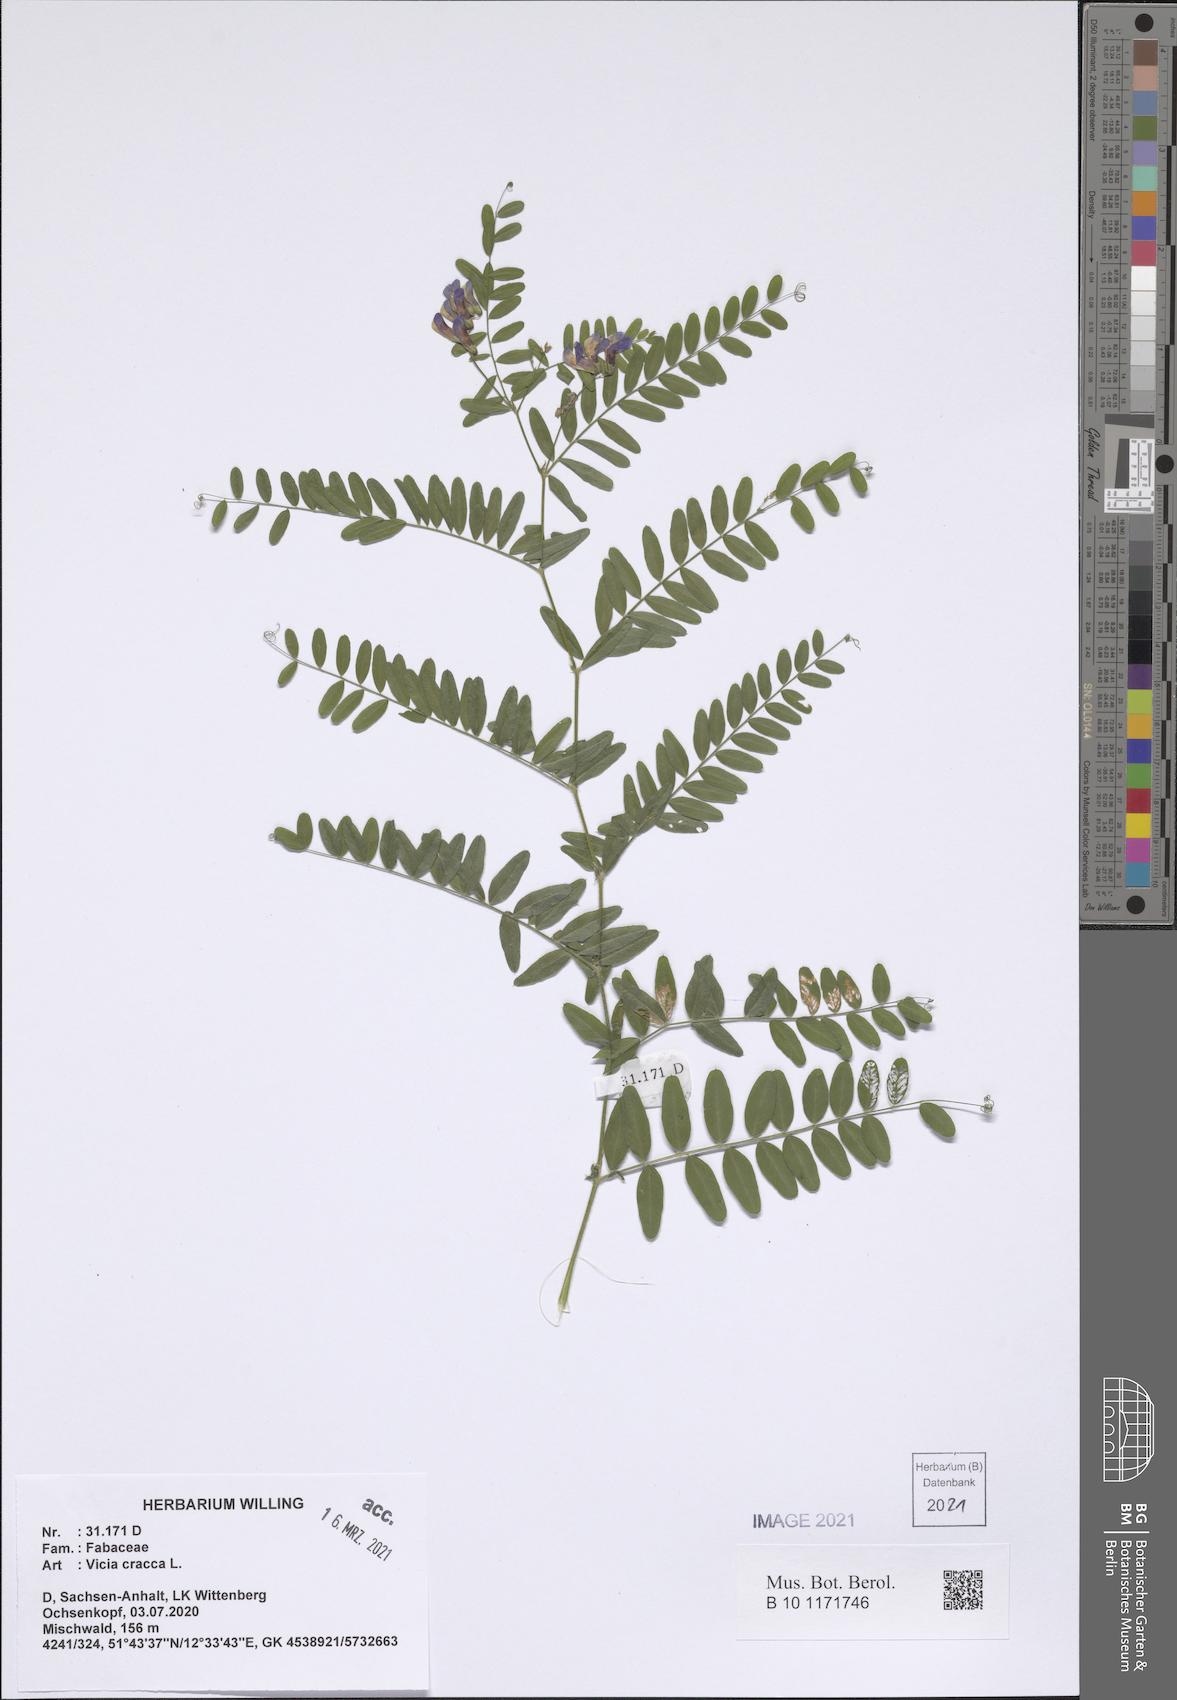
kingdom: Plantae
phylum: Tracheophyta
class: Magnoliopsida
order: Fabales
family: Fabaceae
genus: Vicia
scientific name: Vicia cracca
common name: Bird vetch
